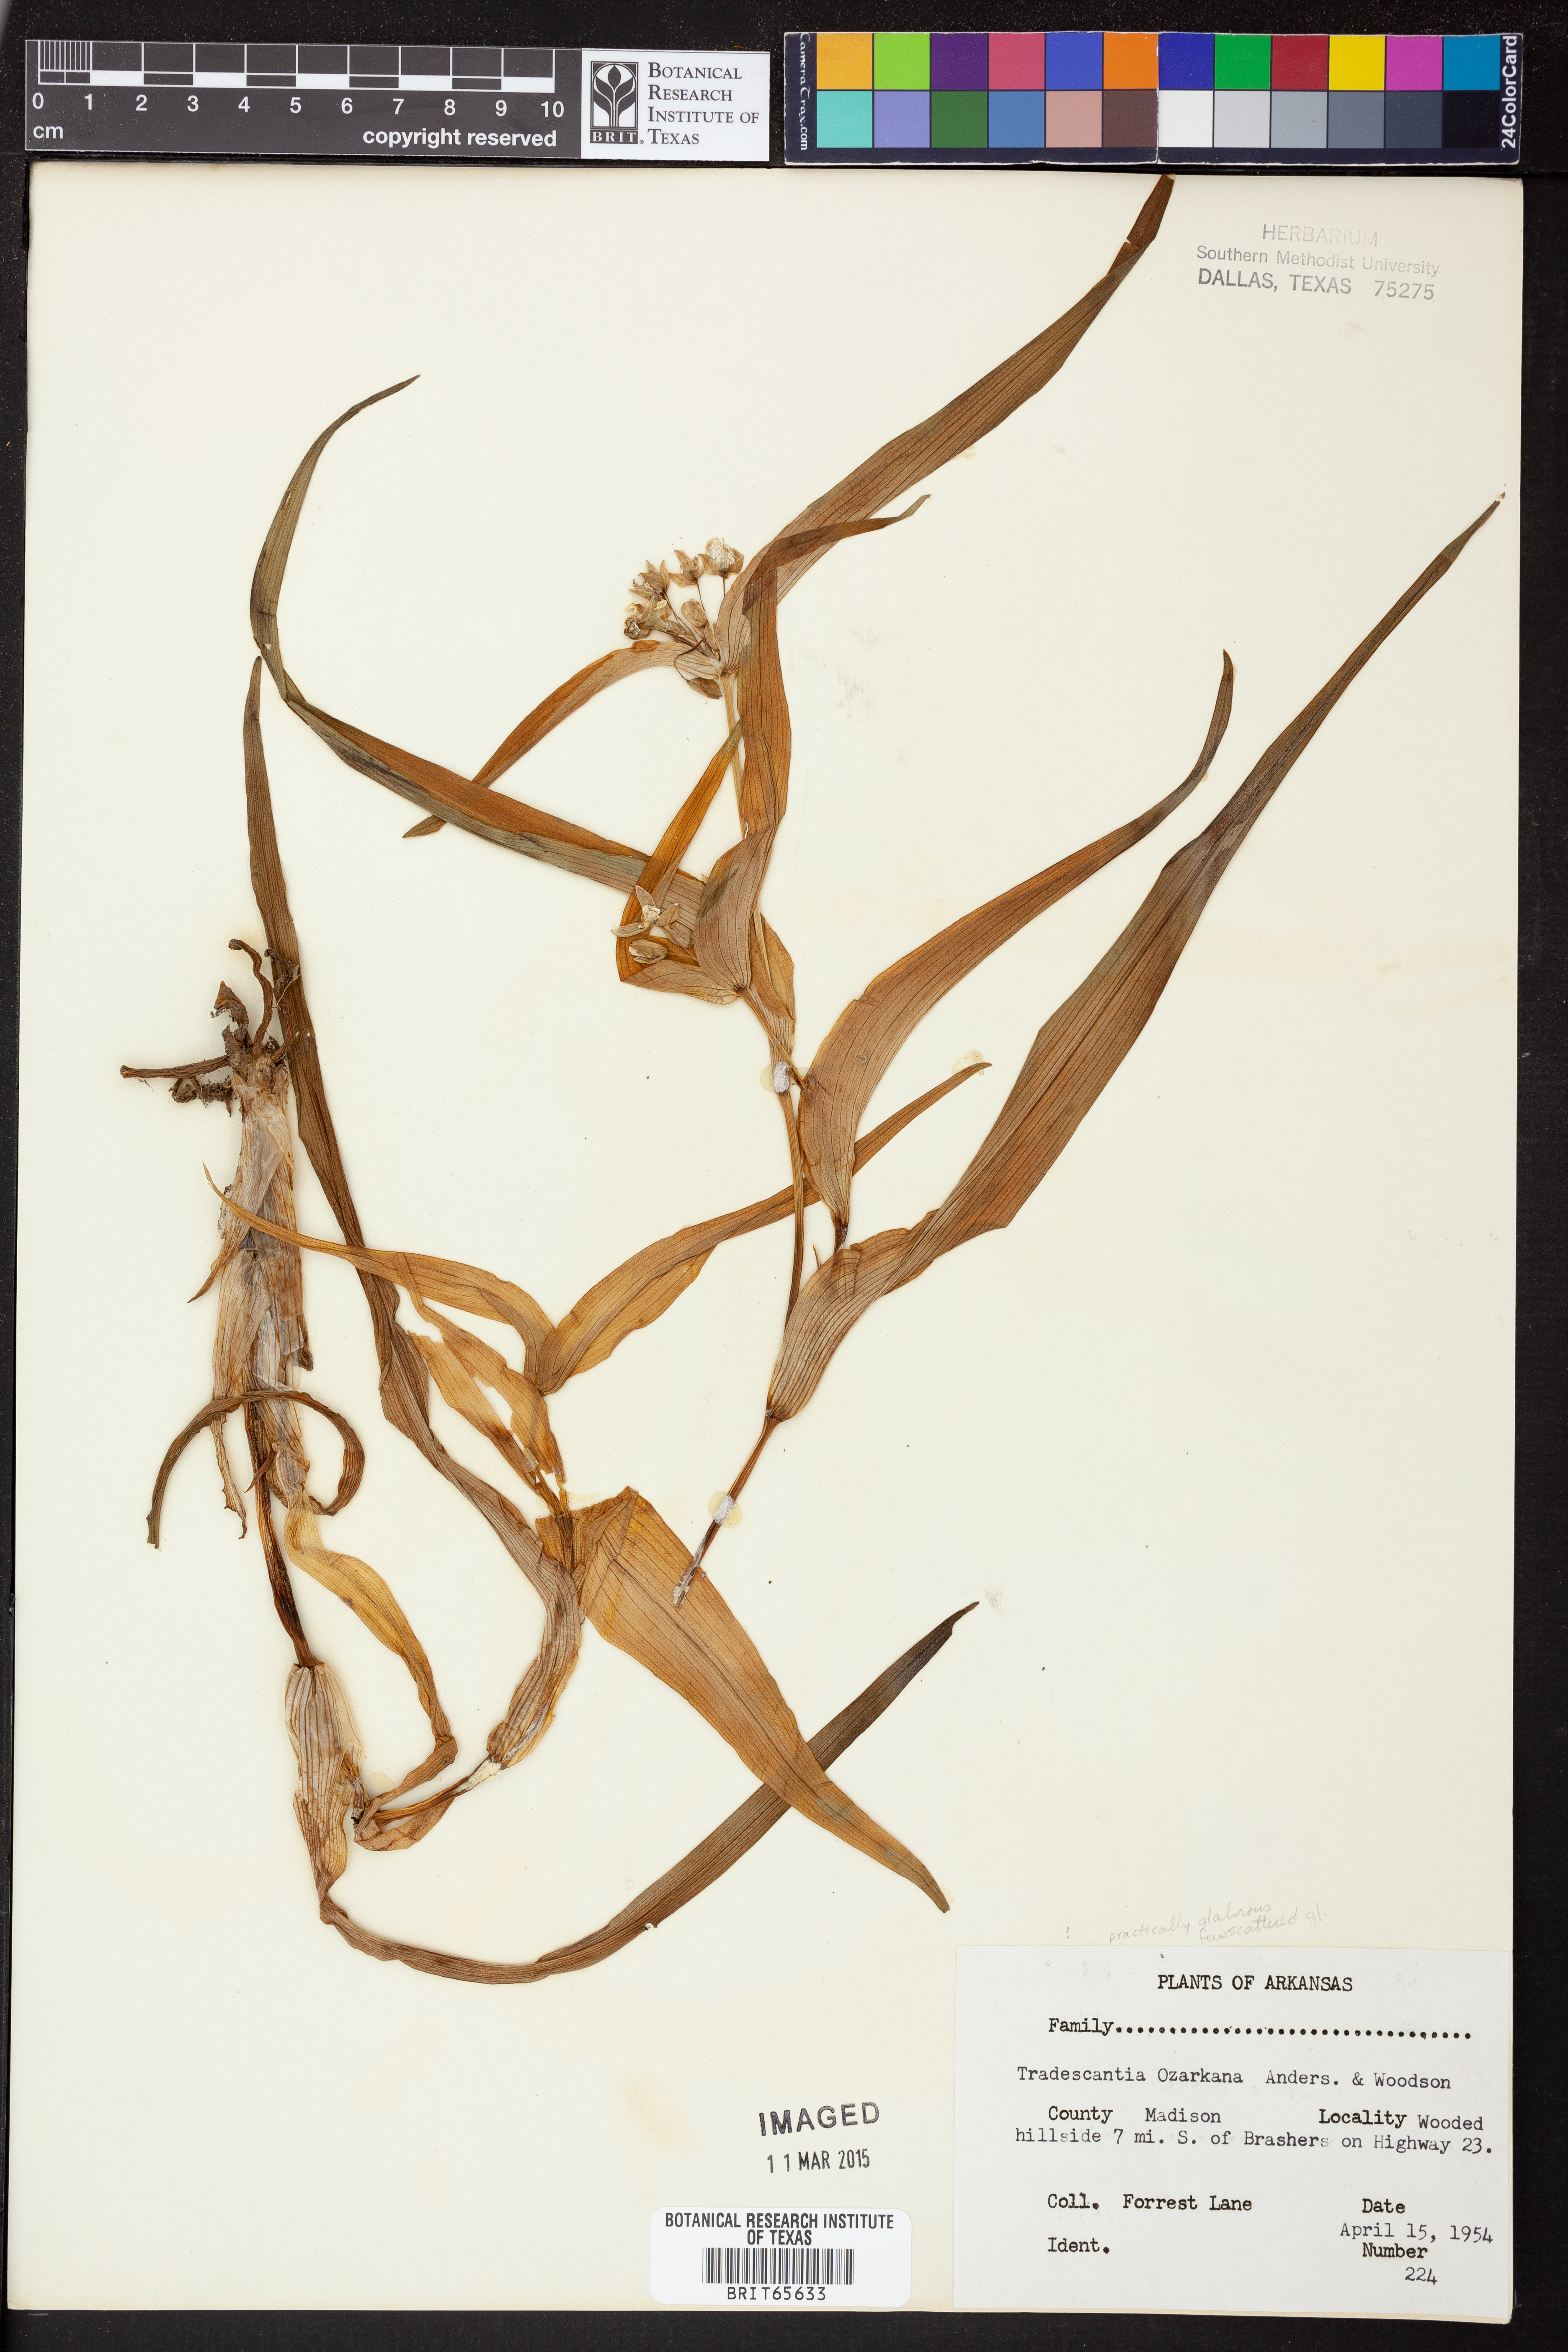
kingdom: Plantae
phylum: Tracheophyta
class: Liliopsida
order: Commelinales
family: Commelinaceae
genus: Tradescantia
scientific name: Tradescantia ozarkana
